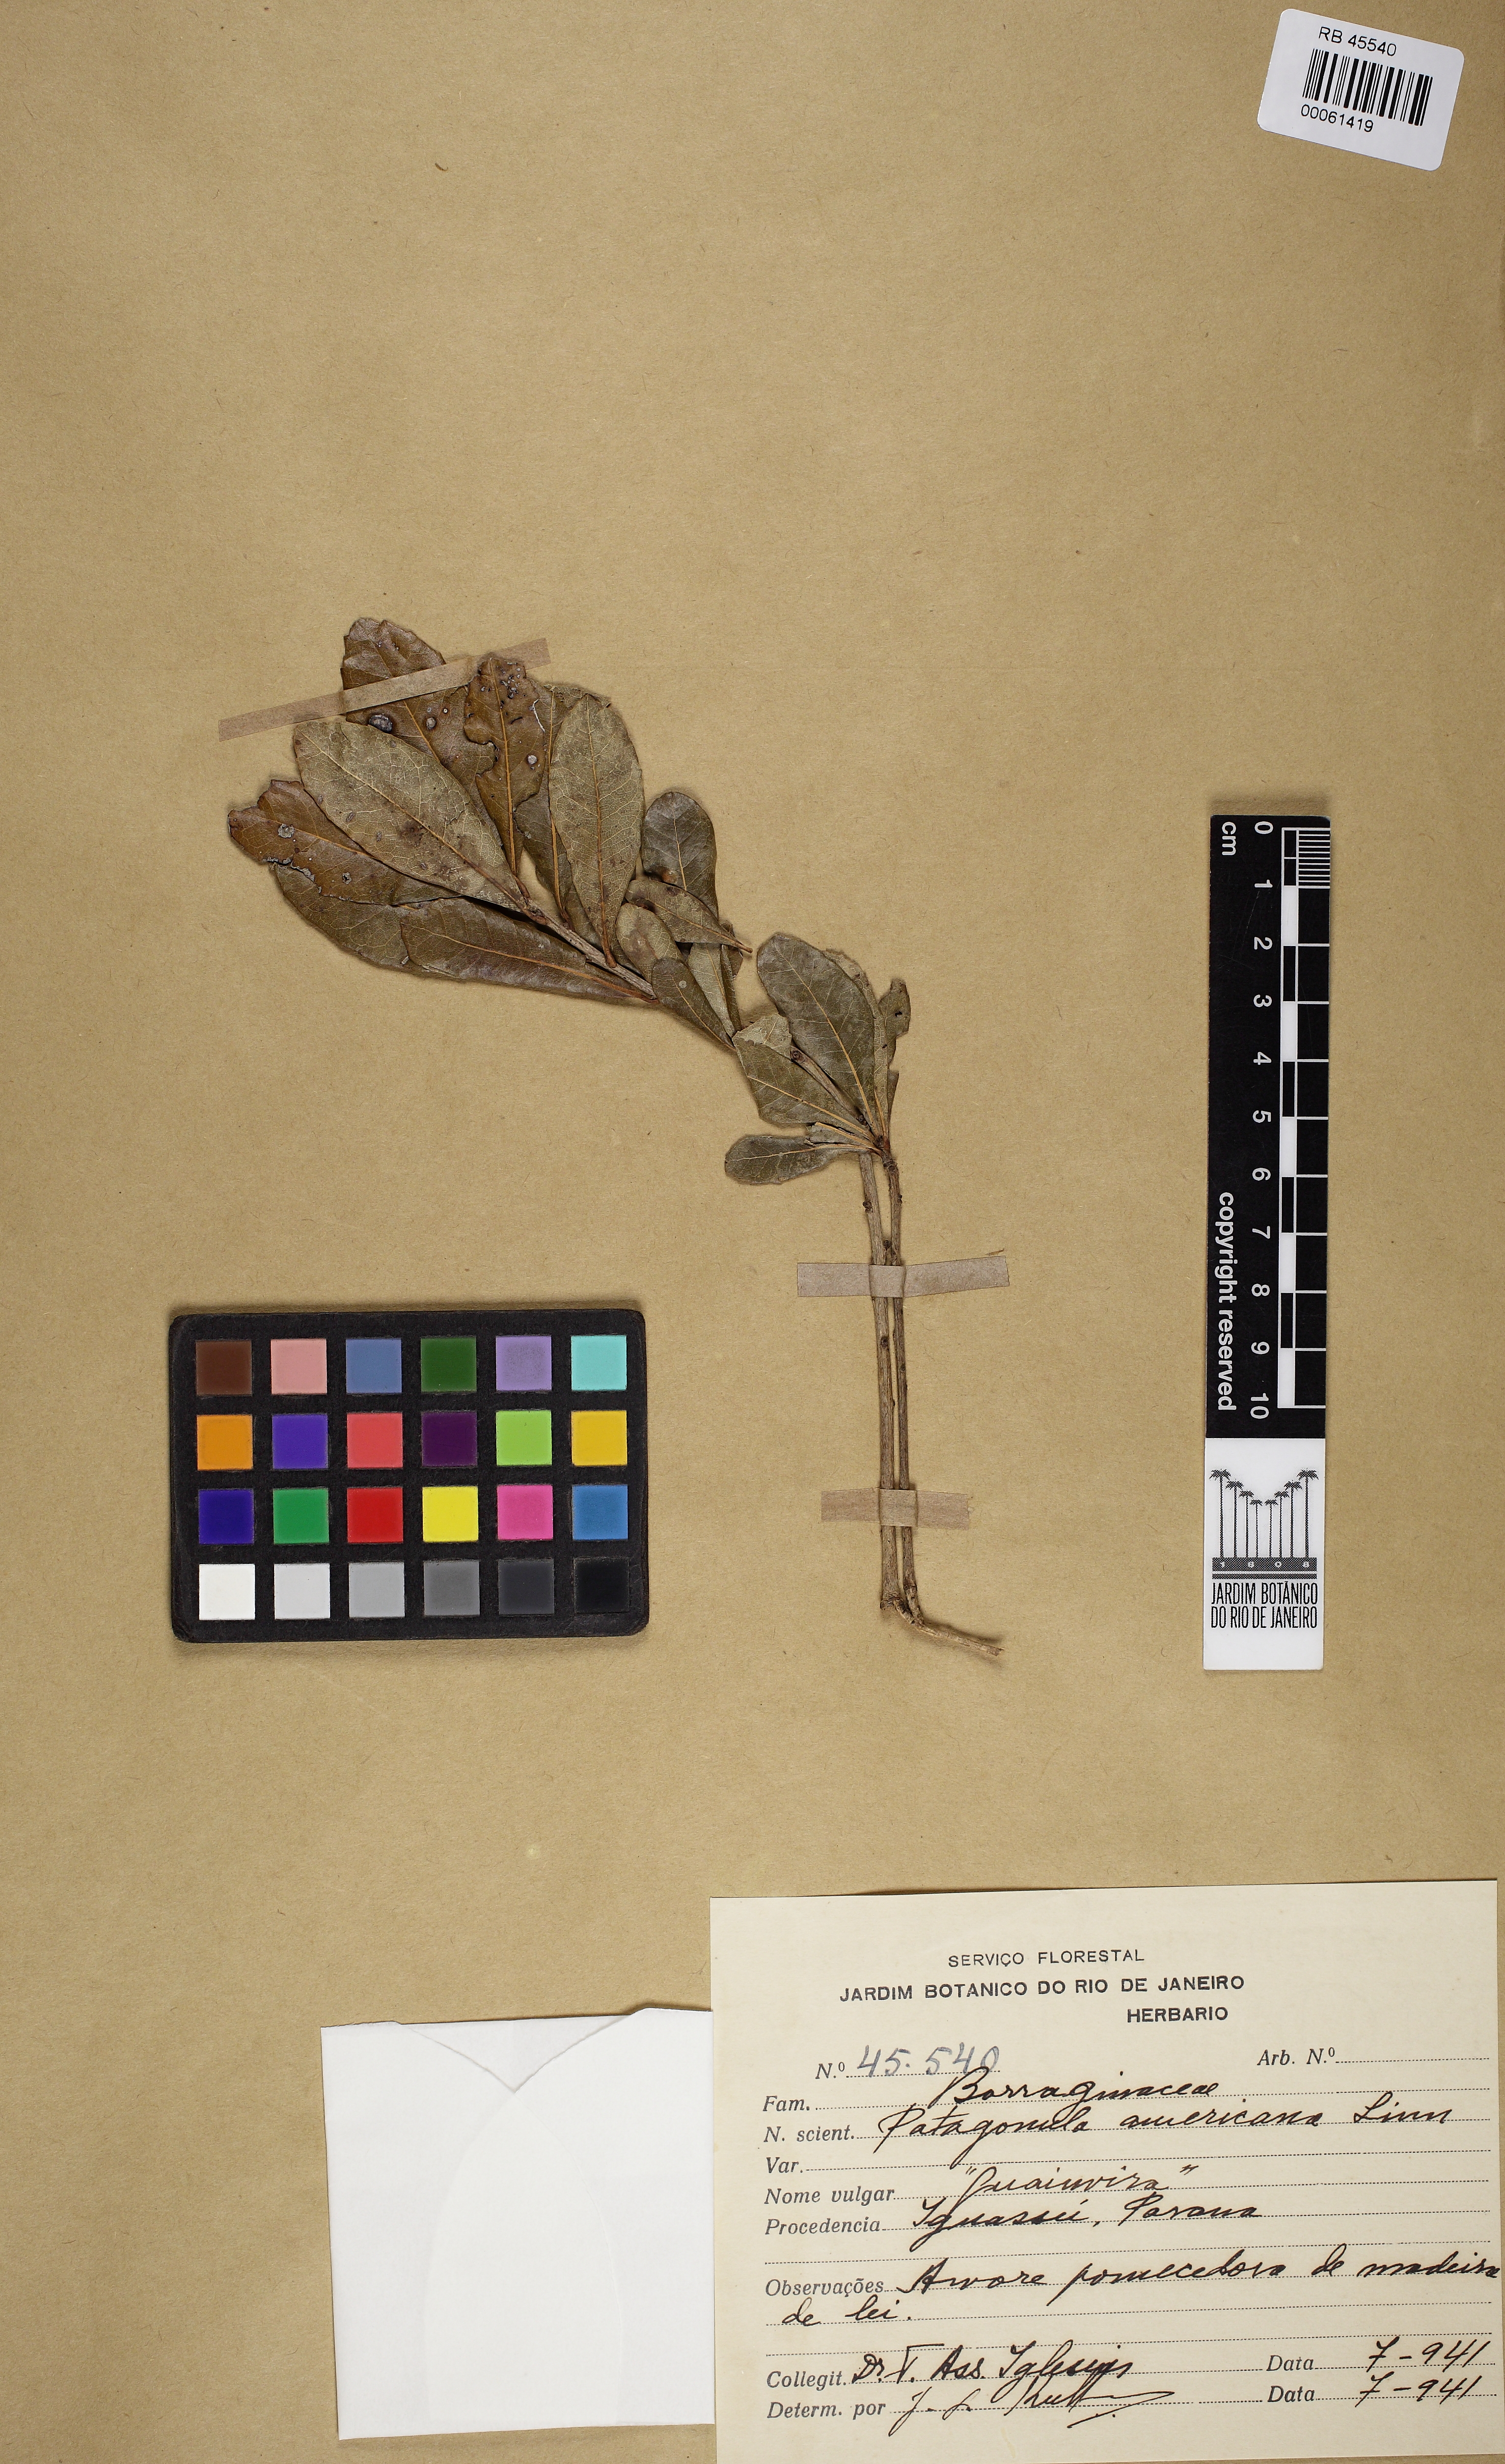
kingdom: Plantae
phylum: Tracheophyta
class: Magnoliopsida
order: Boraginales
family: Cordiaceae
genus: Cordia
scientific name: Cordia americana
